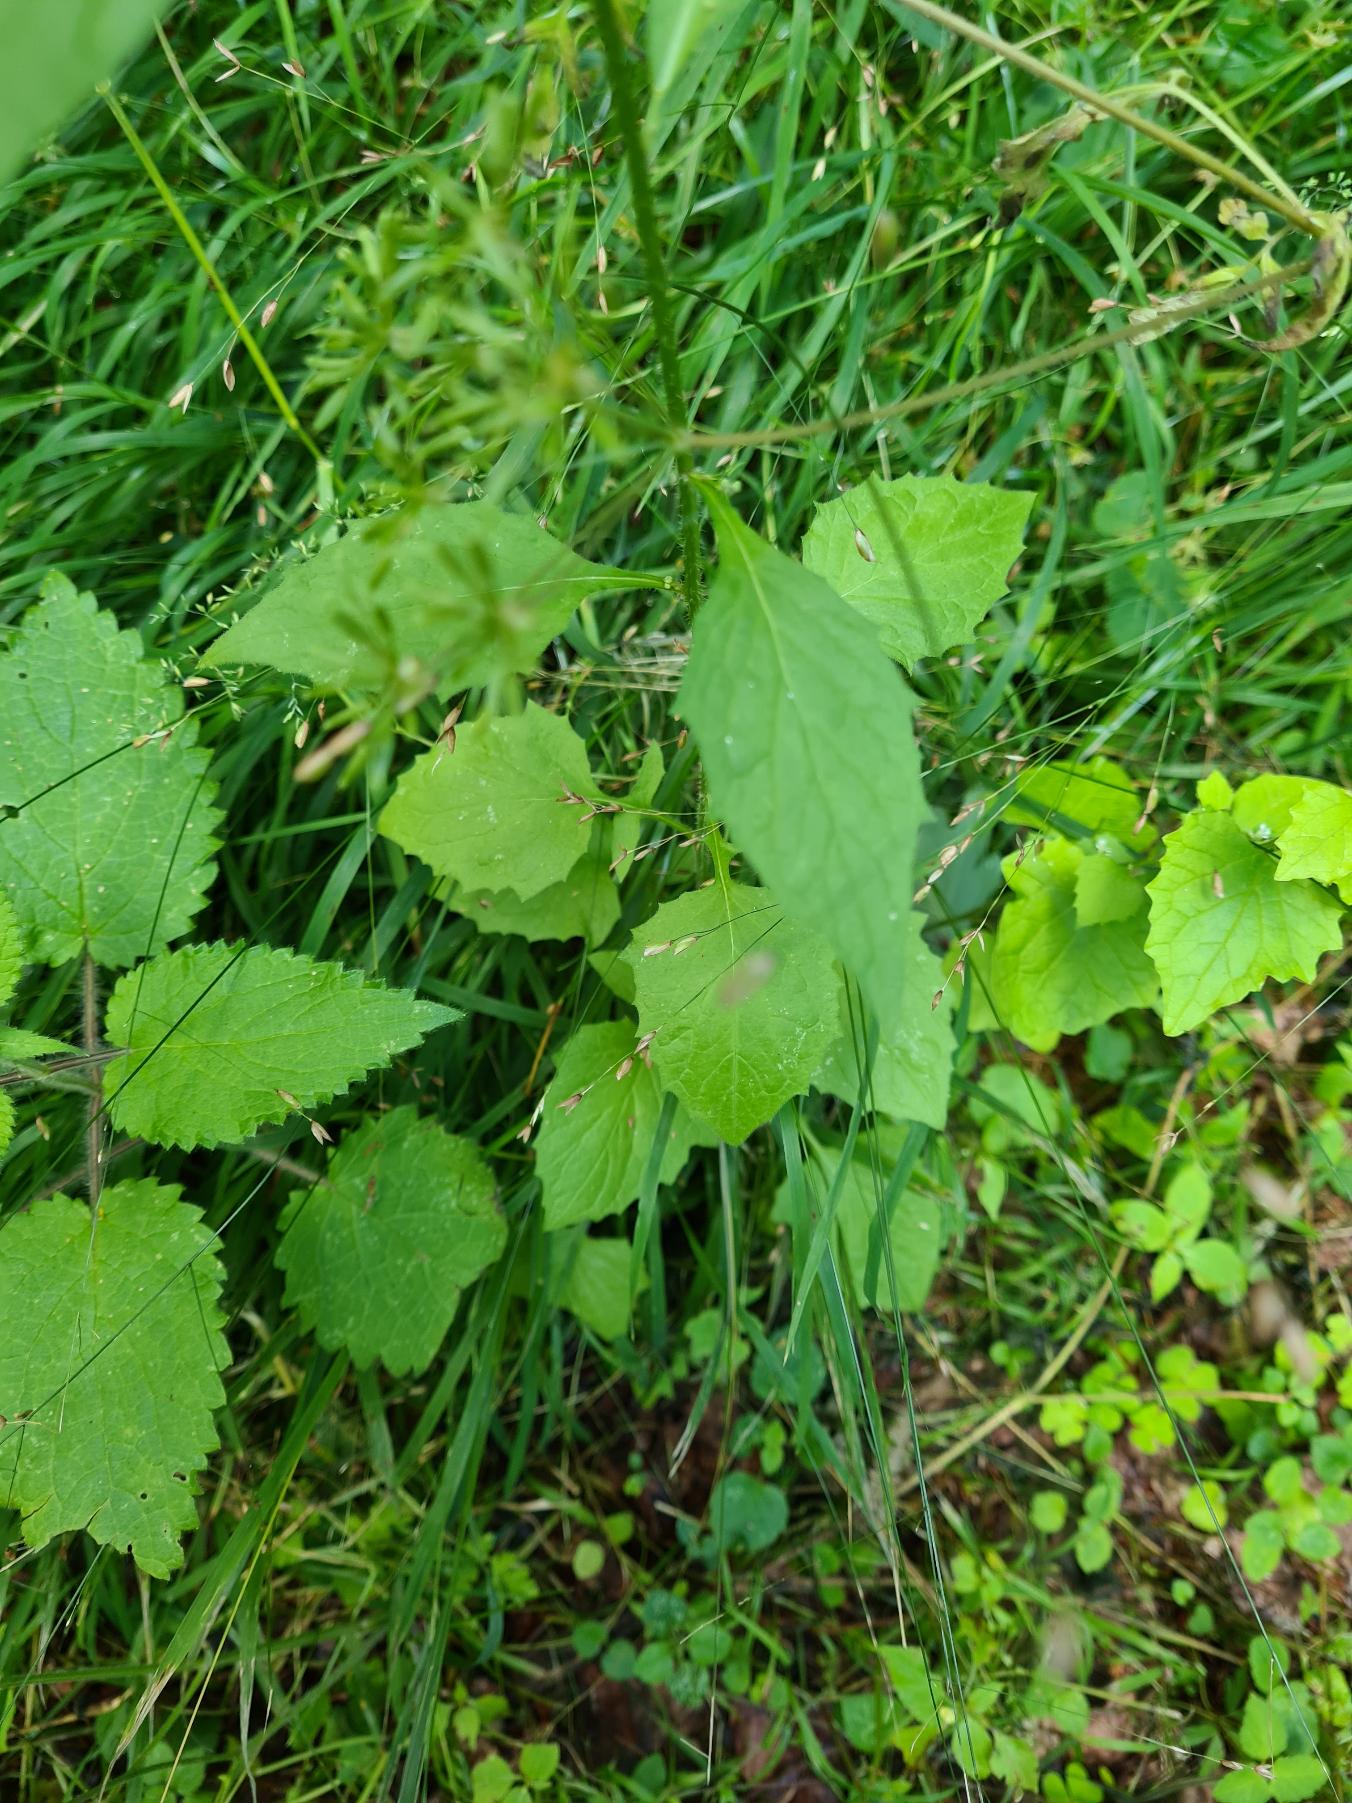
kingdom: Plantae
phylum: Tracheophyta
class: Magnoliopsida
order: Asterales
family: Asteraceae
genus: Lapsana
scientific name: Lapsana communis
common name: Haremad
